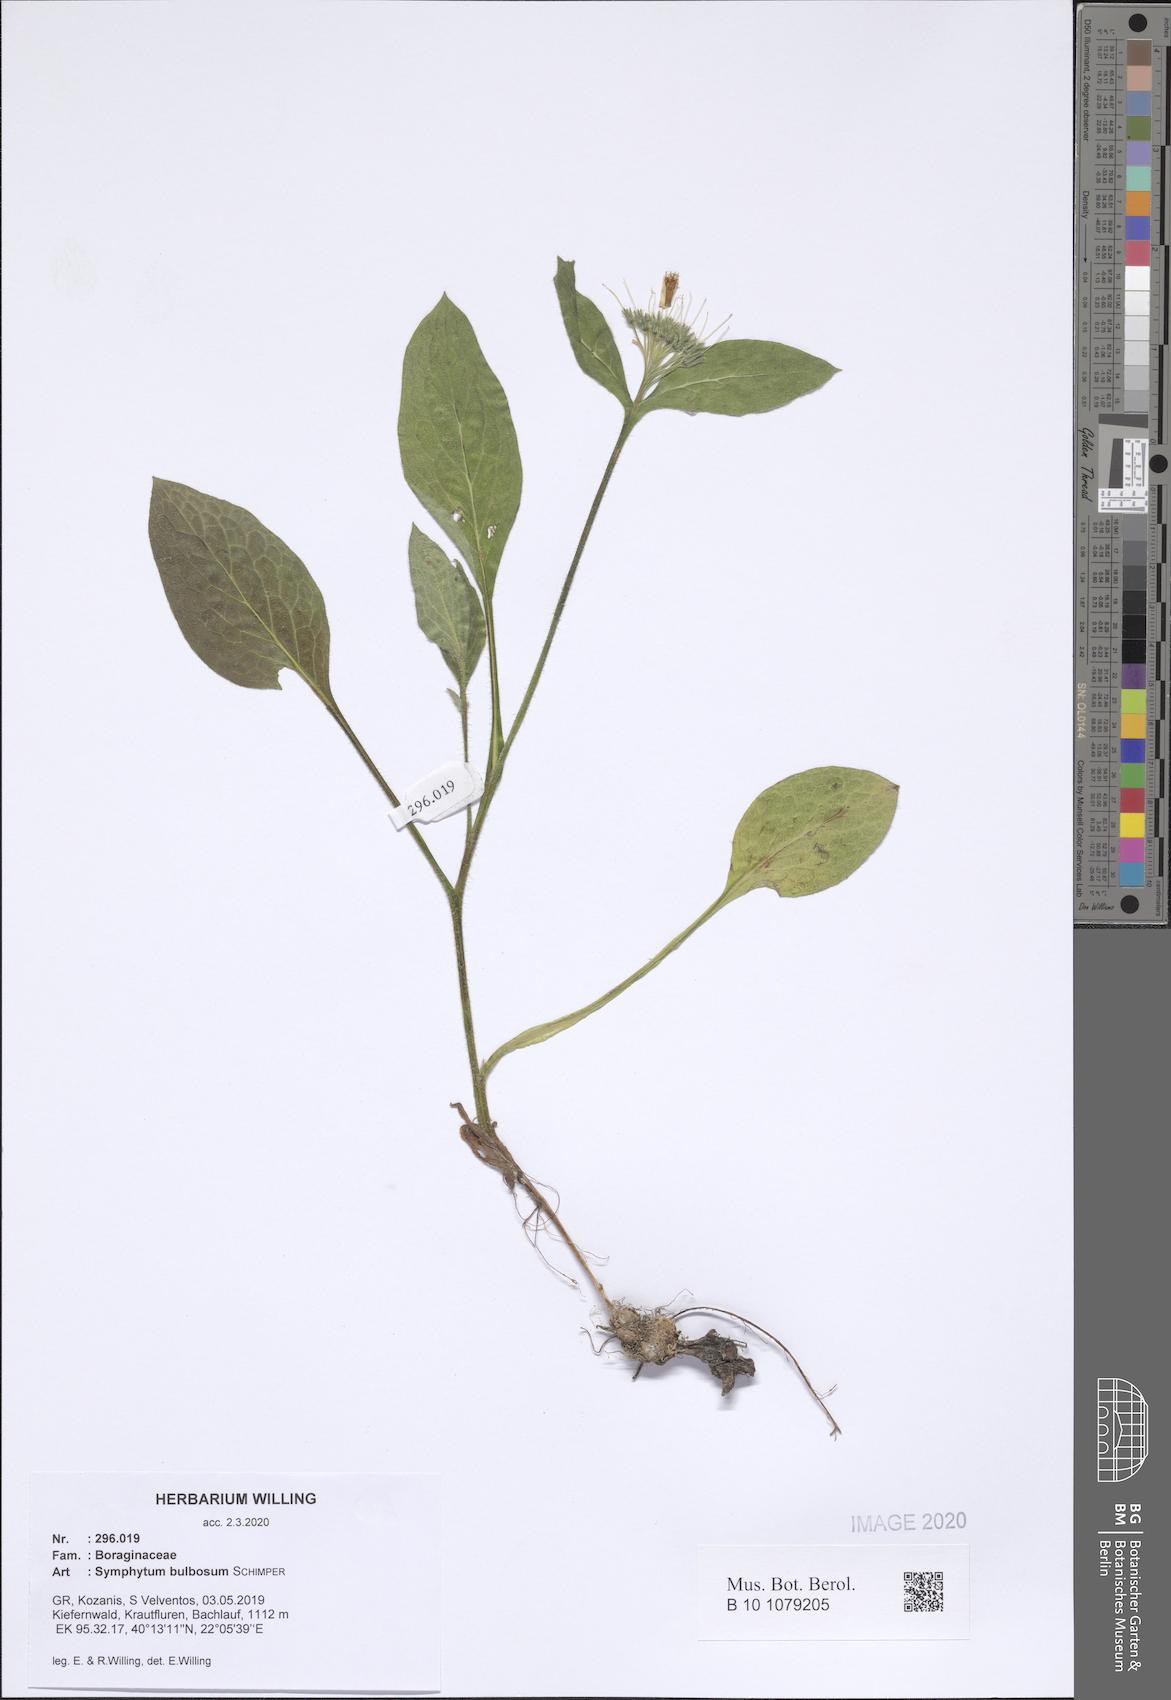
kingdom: Plantae
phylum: Tracheophyta
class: Magnoliopsida
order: Boraginales
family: Boraginaceae
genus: Symphytum
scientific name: Symphytum bulbosum
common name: Bulbous comfrey
